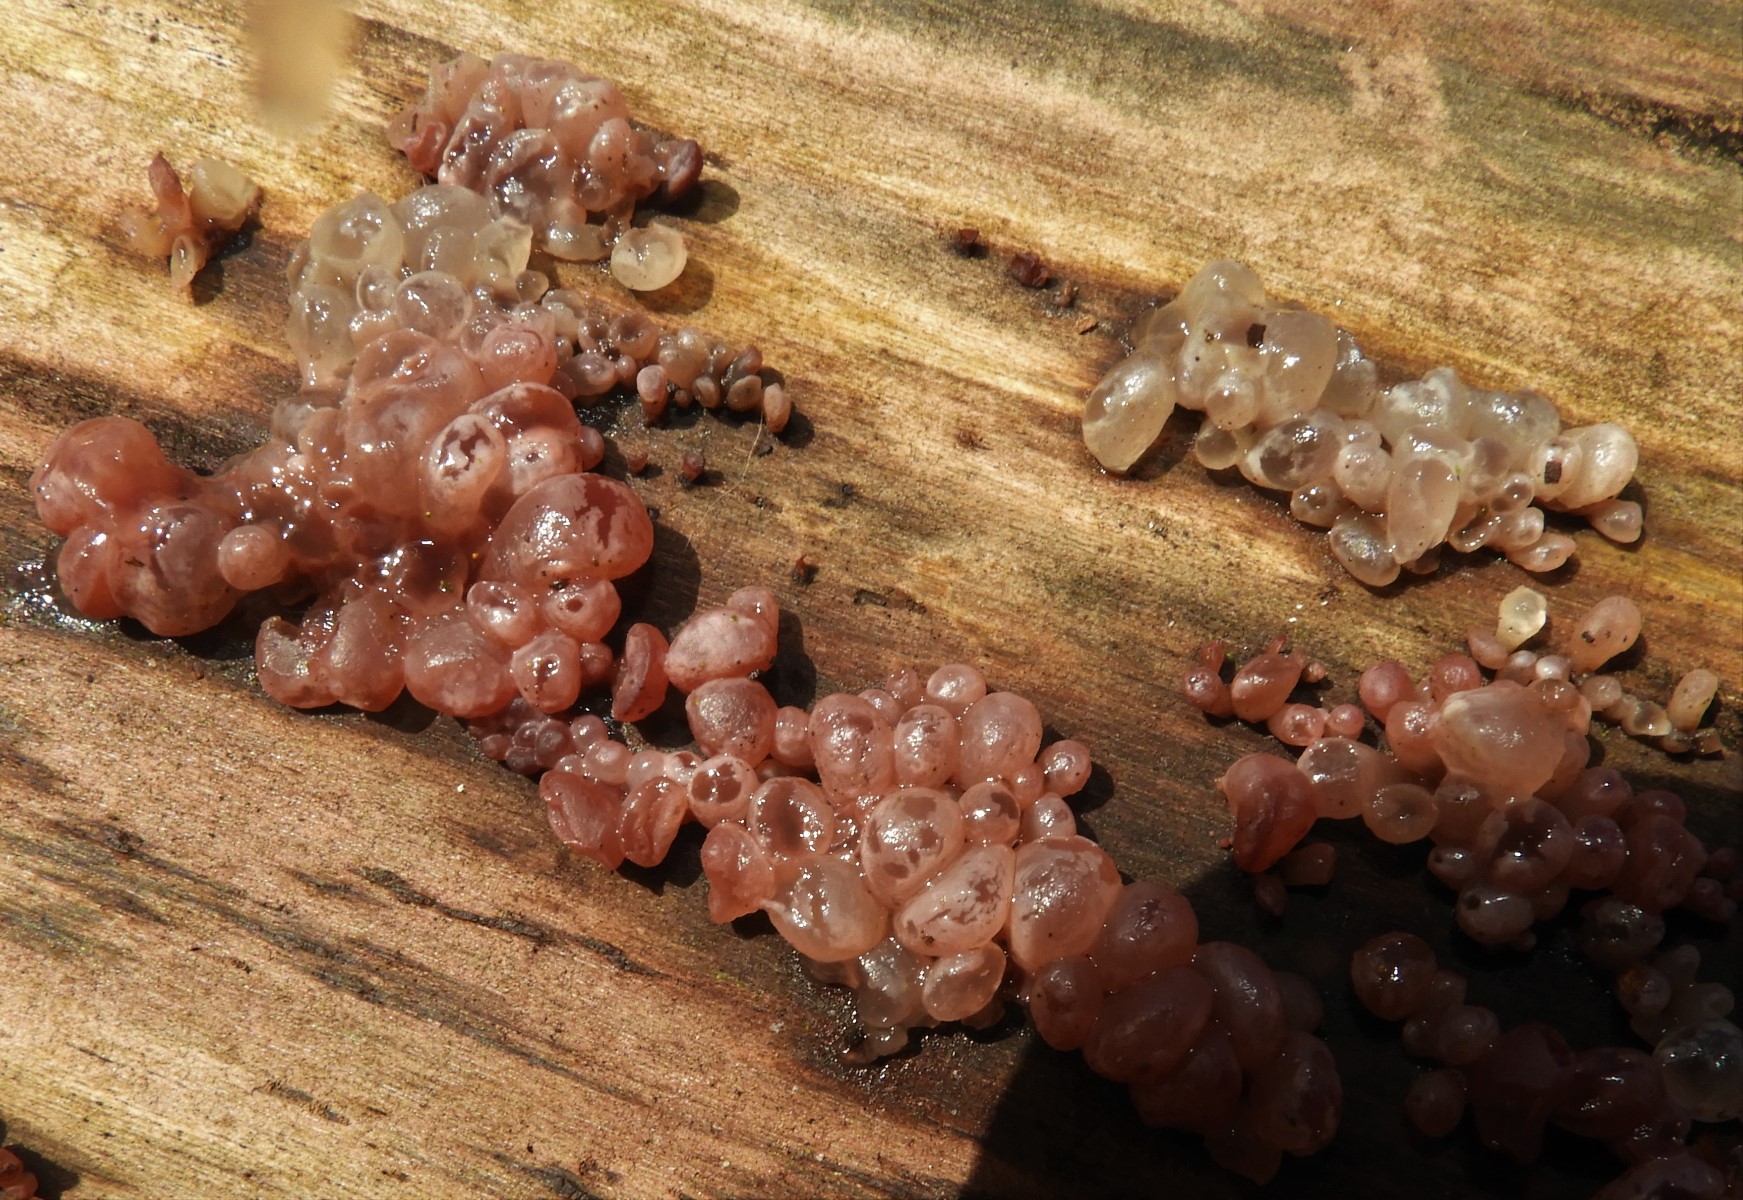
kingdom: Fungi
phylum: Ascomycota
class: Leotiomycetes
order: Helotiales
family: Gelatinodiscaceae
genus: Ascocoryne
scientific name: Ascocoryne sarcoides
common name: rødlilla sejskive
